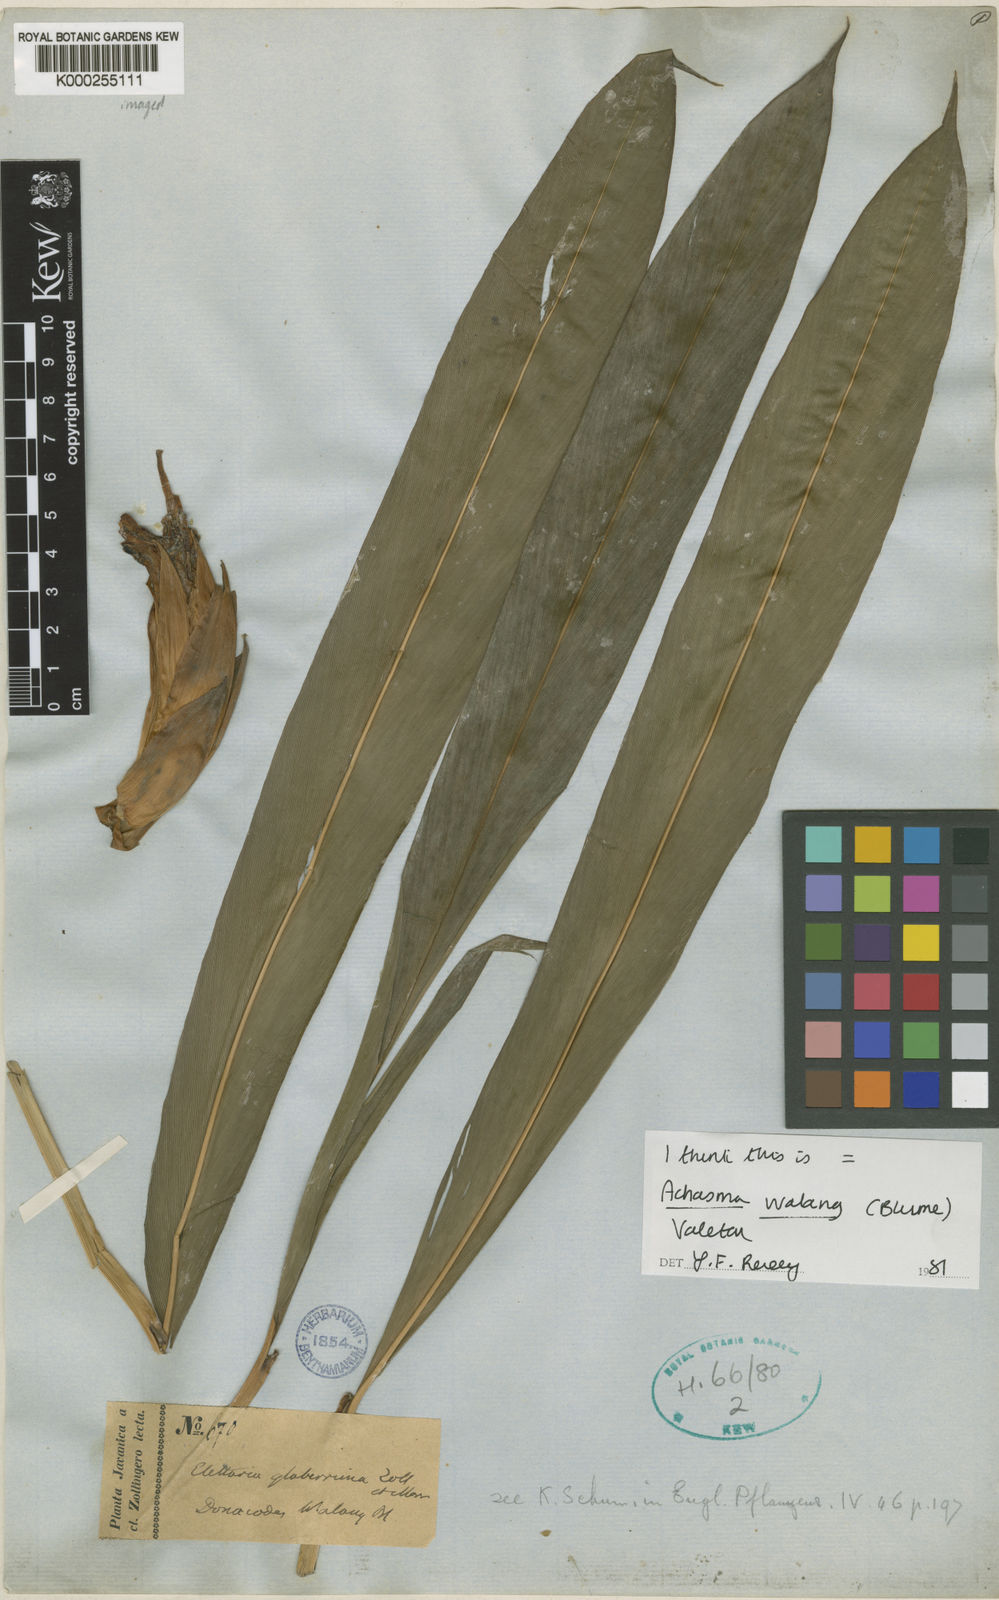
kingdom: Plantae
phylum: Tracheophyta
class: Liliopsida
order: Zingiberales
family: Zingiberaceae
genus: Etlingera
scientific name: Etlingera walang
